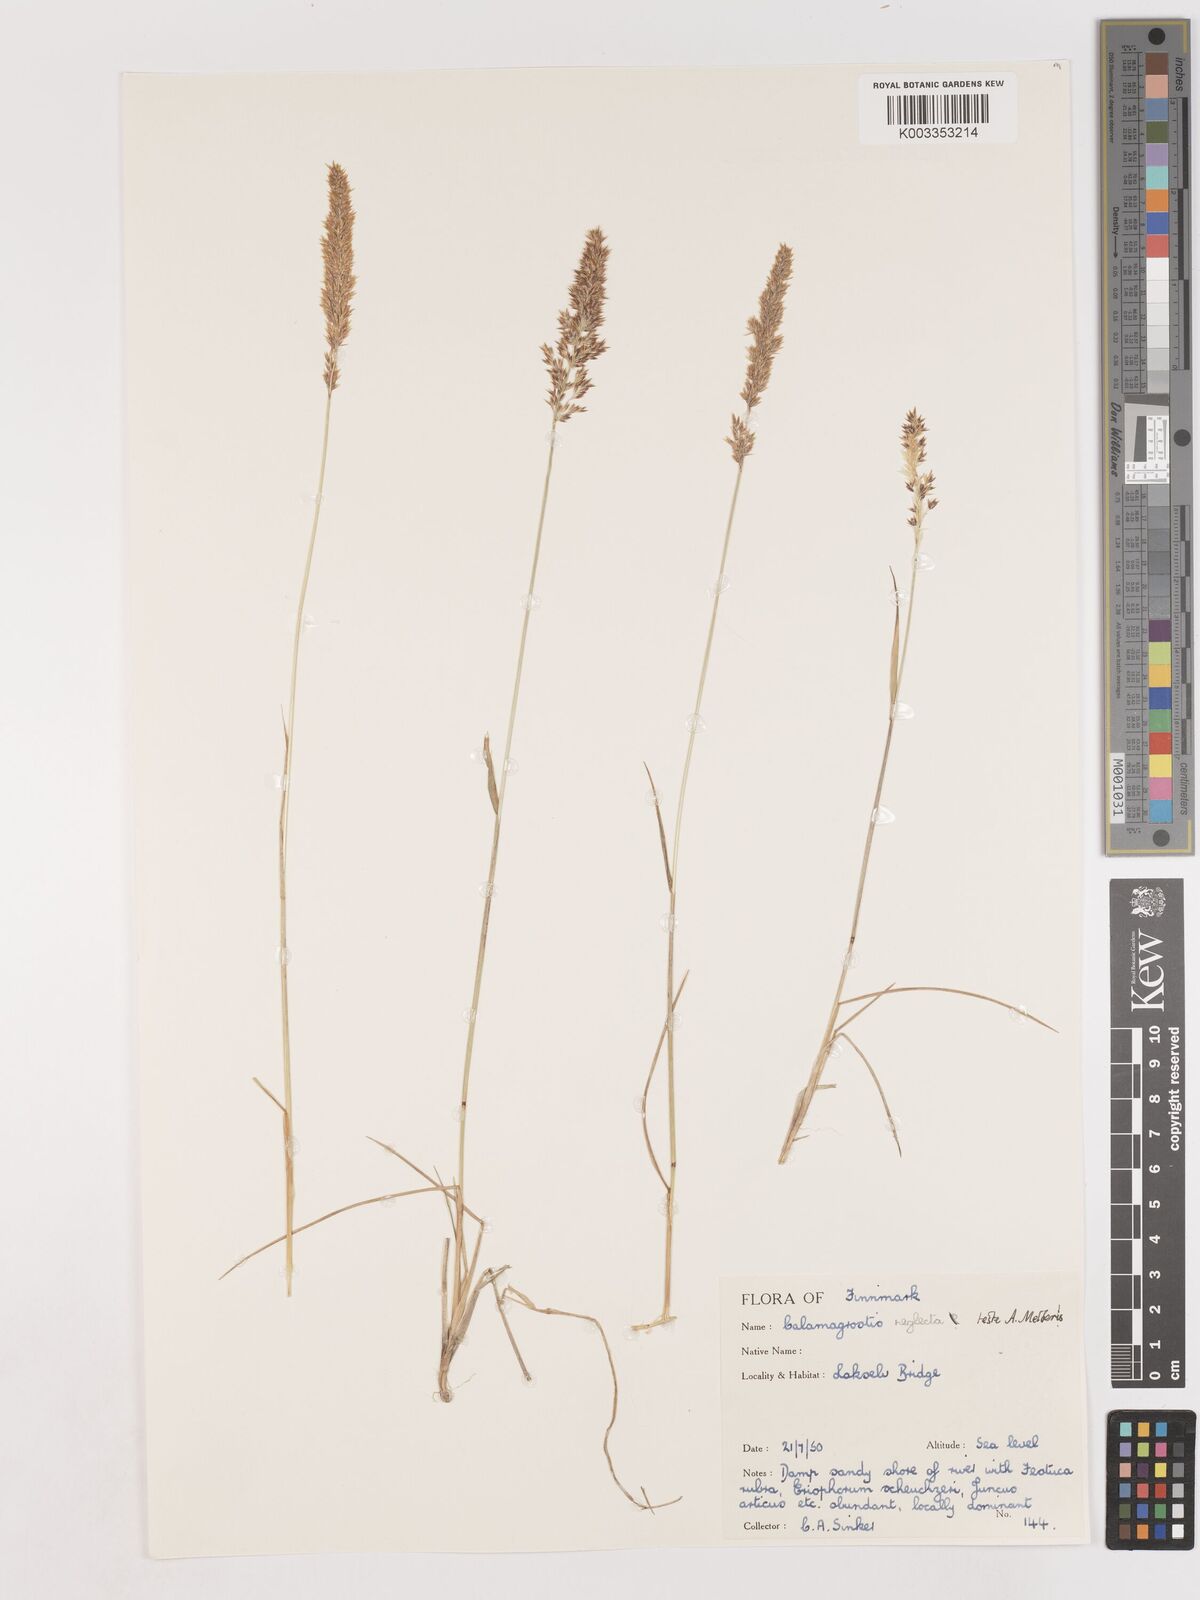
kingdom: Plantae
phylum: Tracheophyta
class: Liliopsida
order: Poales
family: Poaceae
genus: Cinnagrostis
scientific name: Cinnagrostis recta
